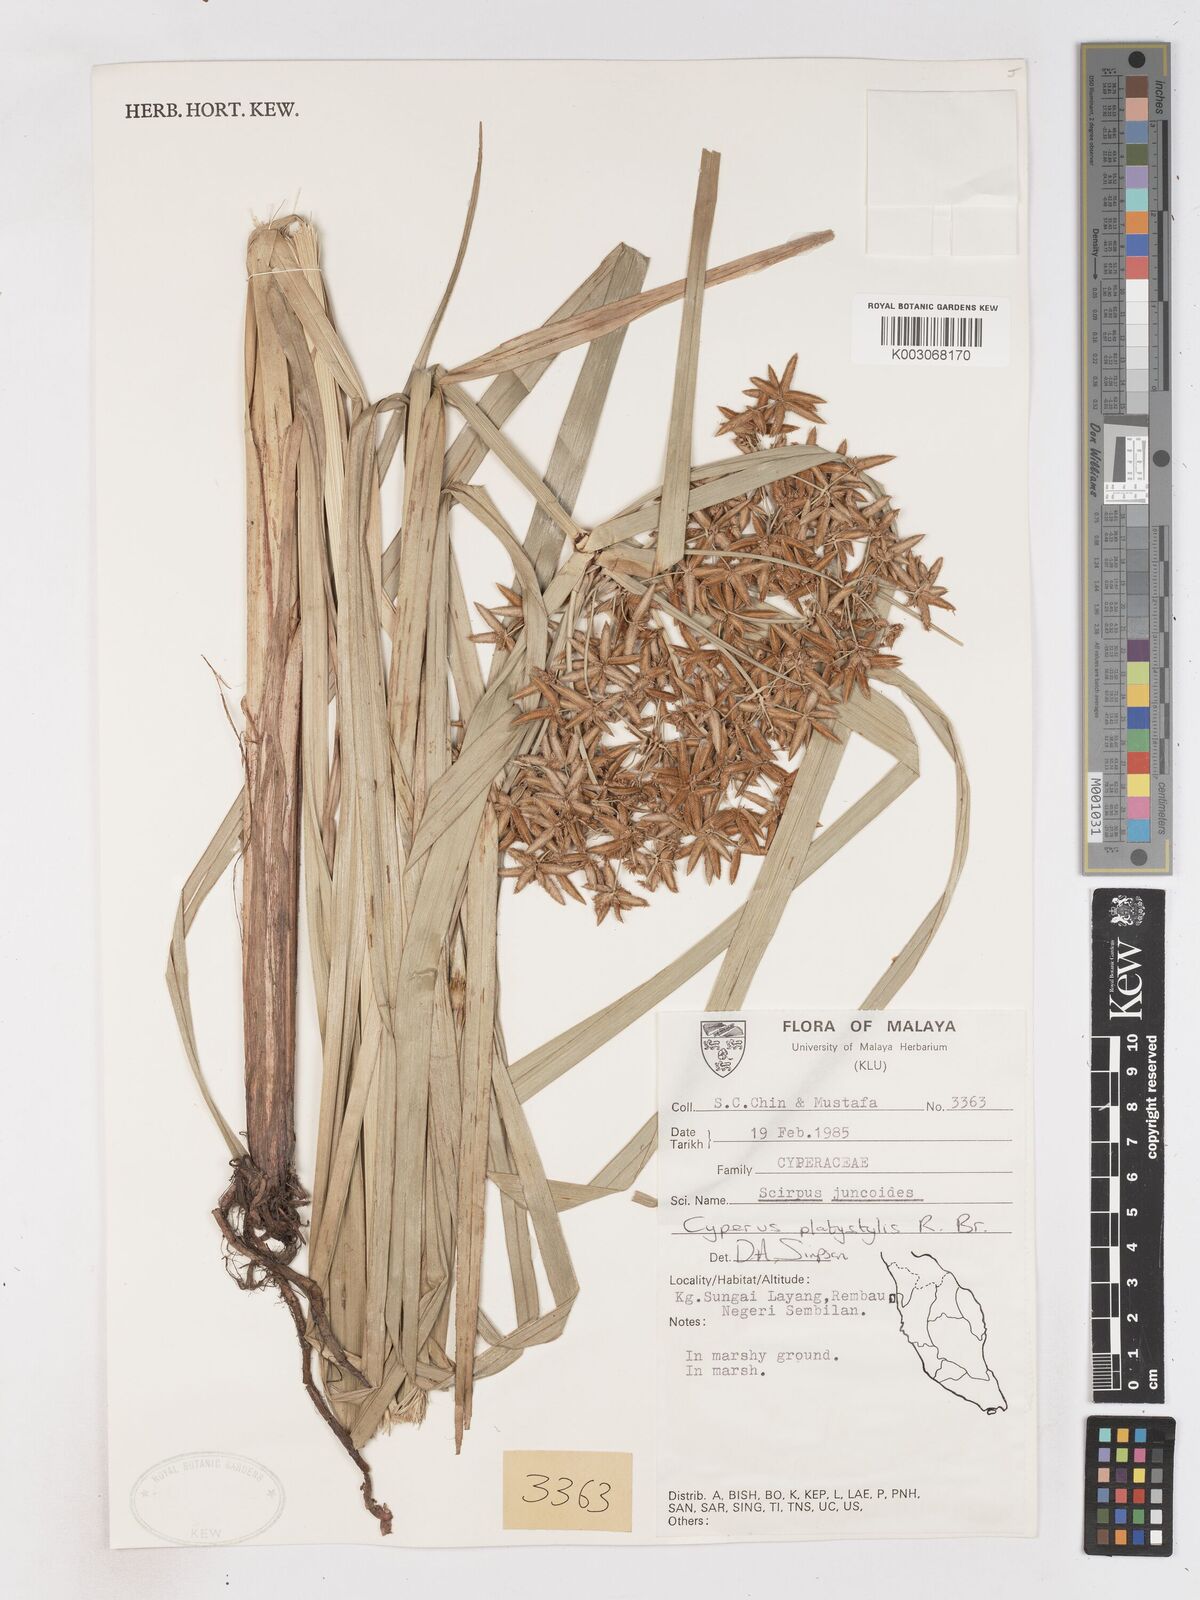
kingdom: Plantae
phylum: Tracheophyta
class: Liliopsida
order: Poales
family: Cyperaceae
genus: Cyperus
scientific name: Cyperus platystylis
